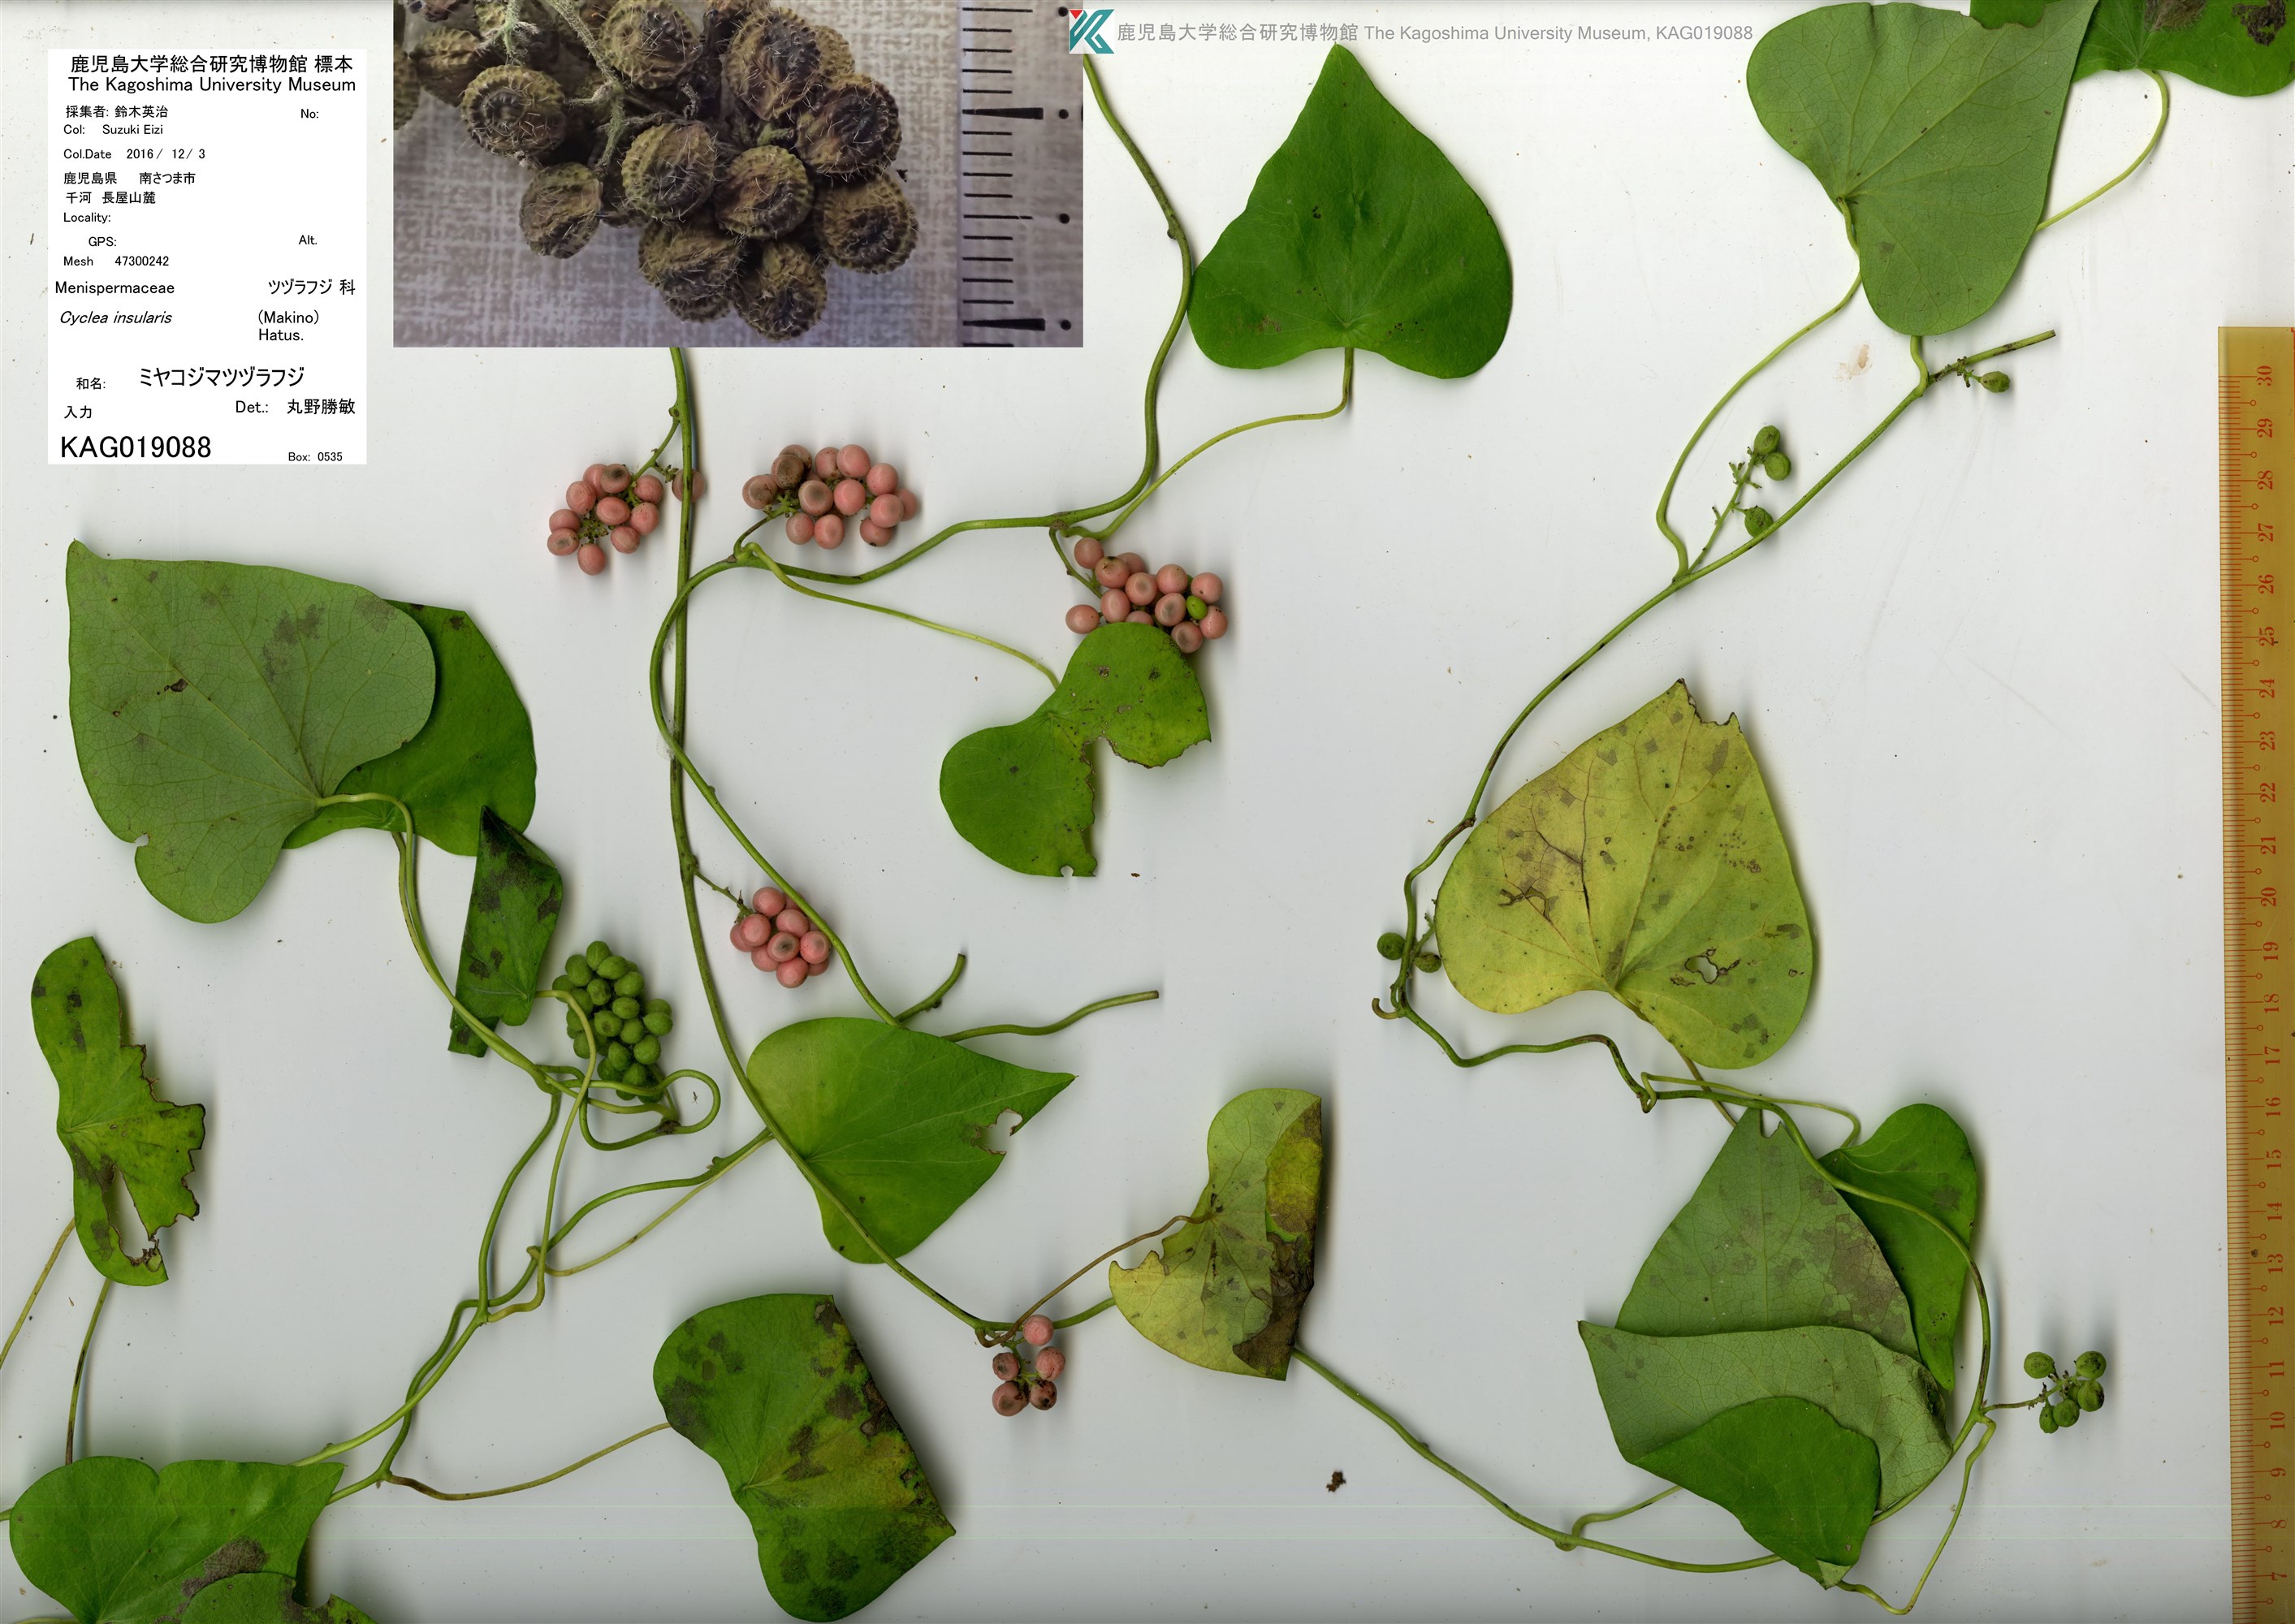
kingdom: Plantae
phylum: Tracheophyta
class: Magnoliopsida
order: Ranunculales
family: Menispermaceae
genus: Cyclea
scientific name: Cyclea insularis
